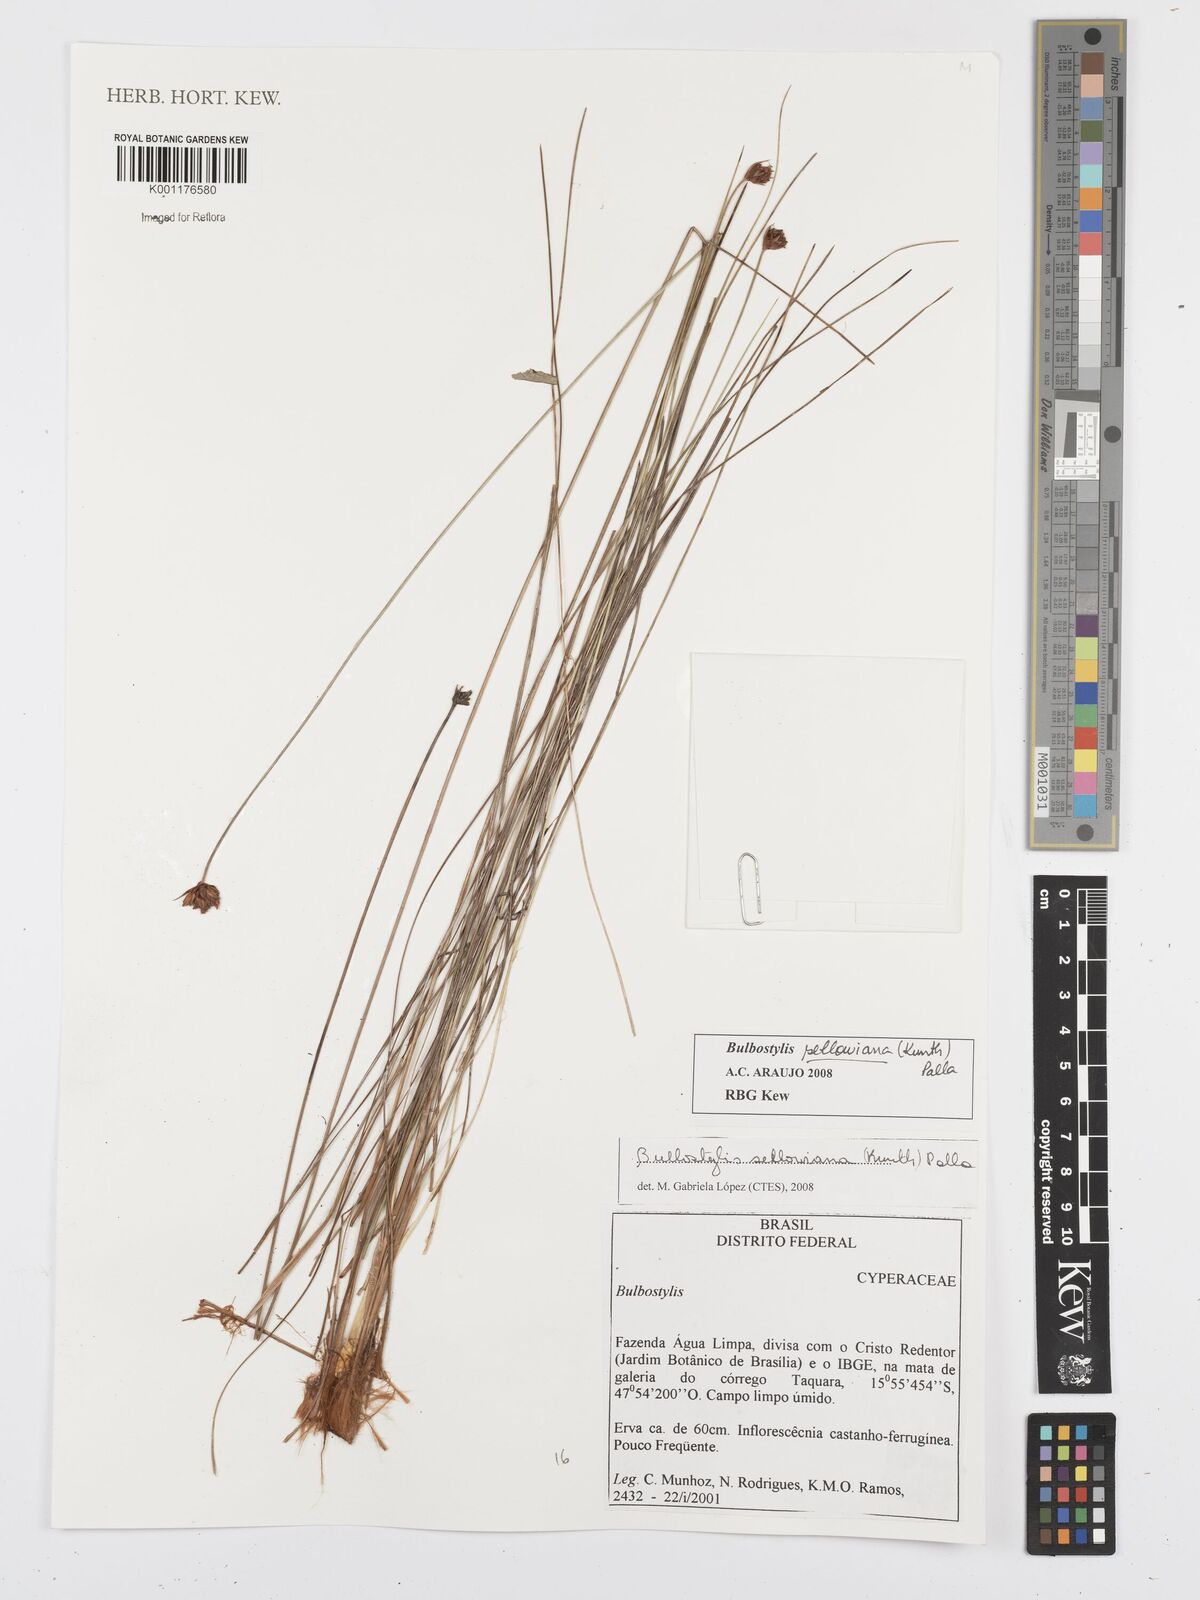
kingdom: Plantae
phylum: Tracheophyta
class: Liliopsida
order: Poales
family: Cyperaceae
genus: Bulbostylis
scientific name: Bulbostylis sellowiana
